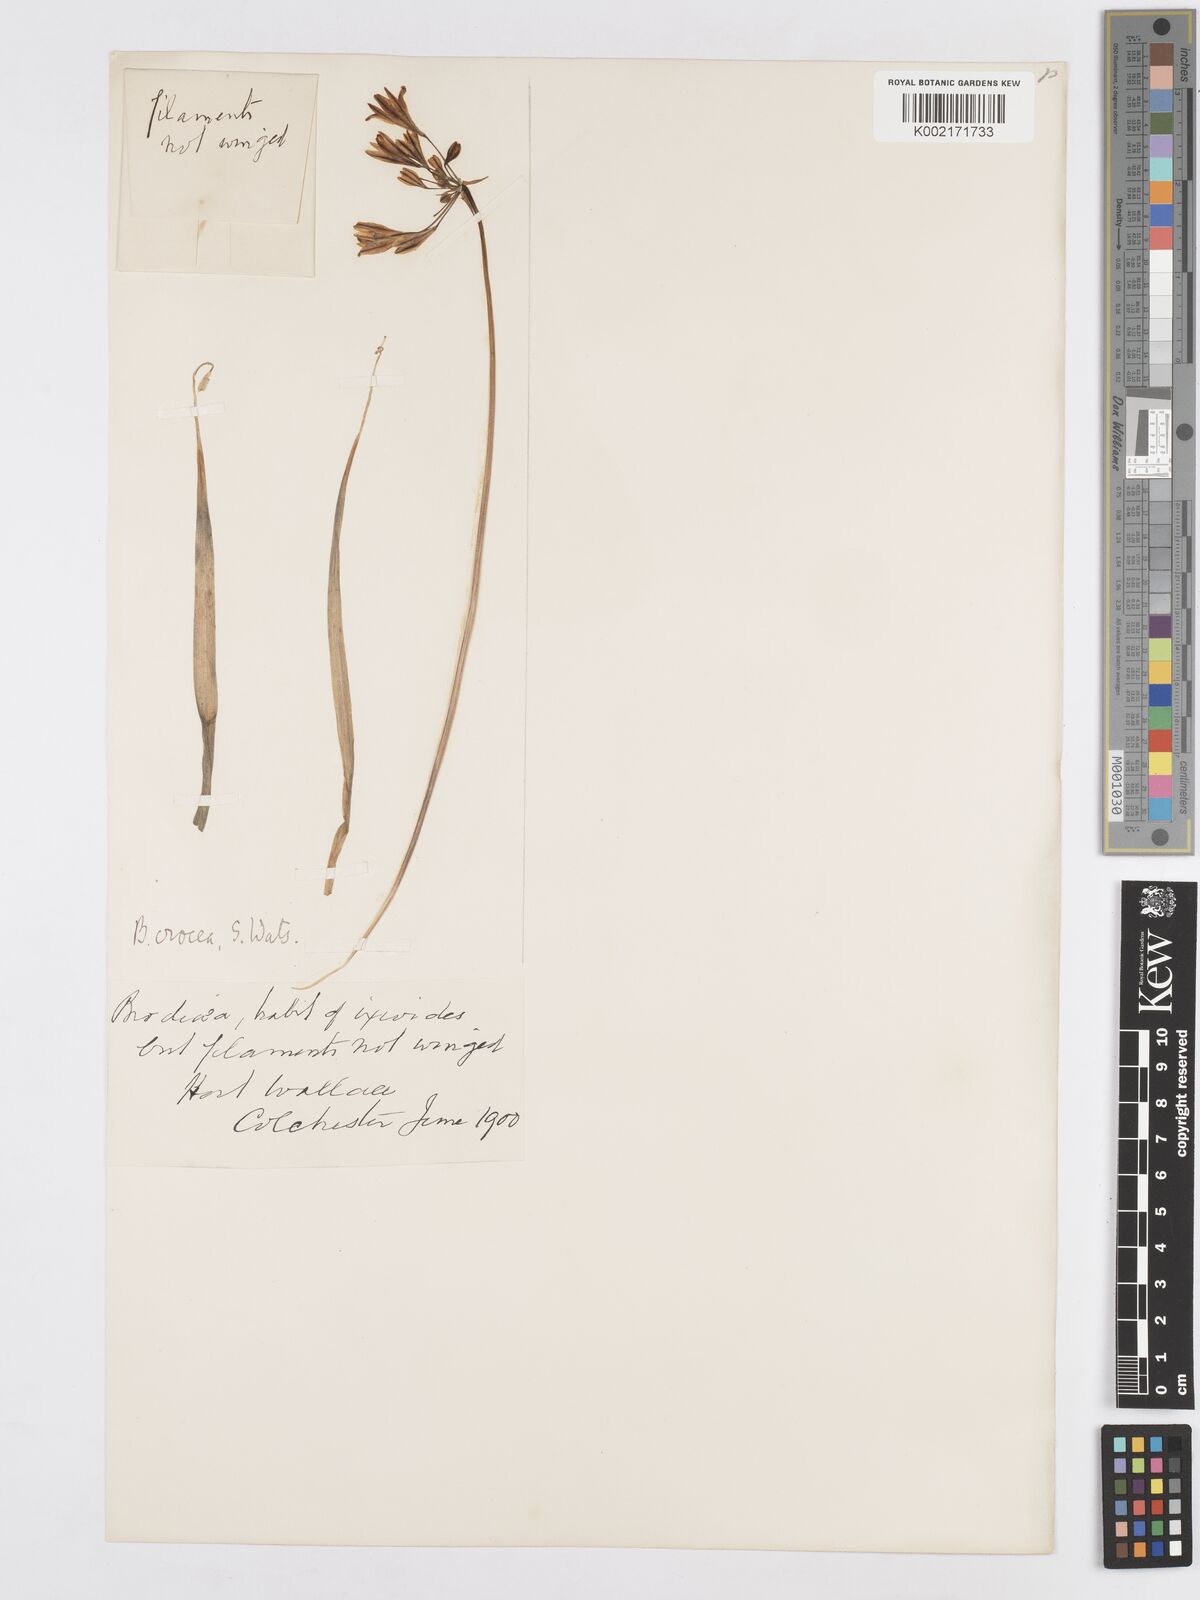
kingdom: Plantae
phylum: Tracheophyta
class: Liliopsida
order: Asparagales
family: Asparagaceae
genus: Triteleia
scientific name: Triteleia crocea
